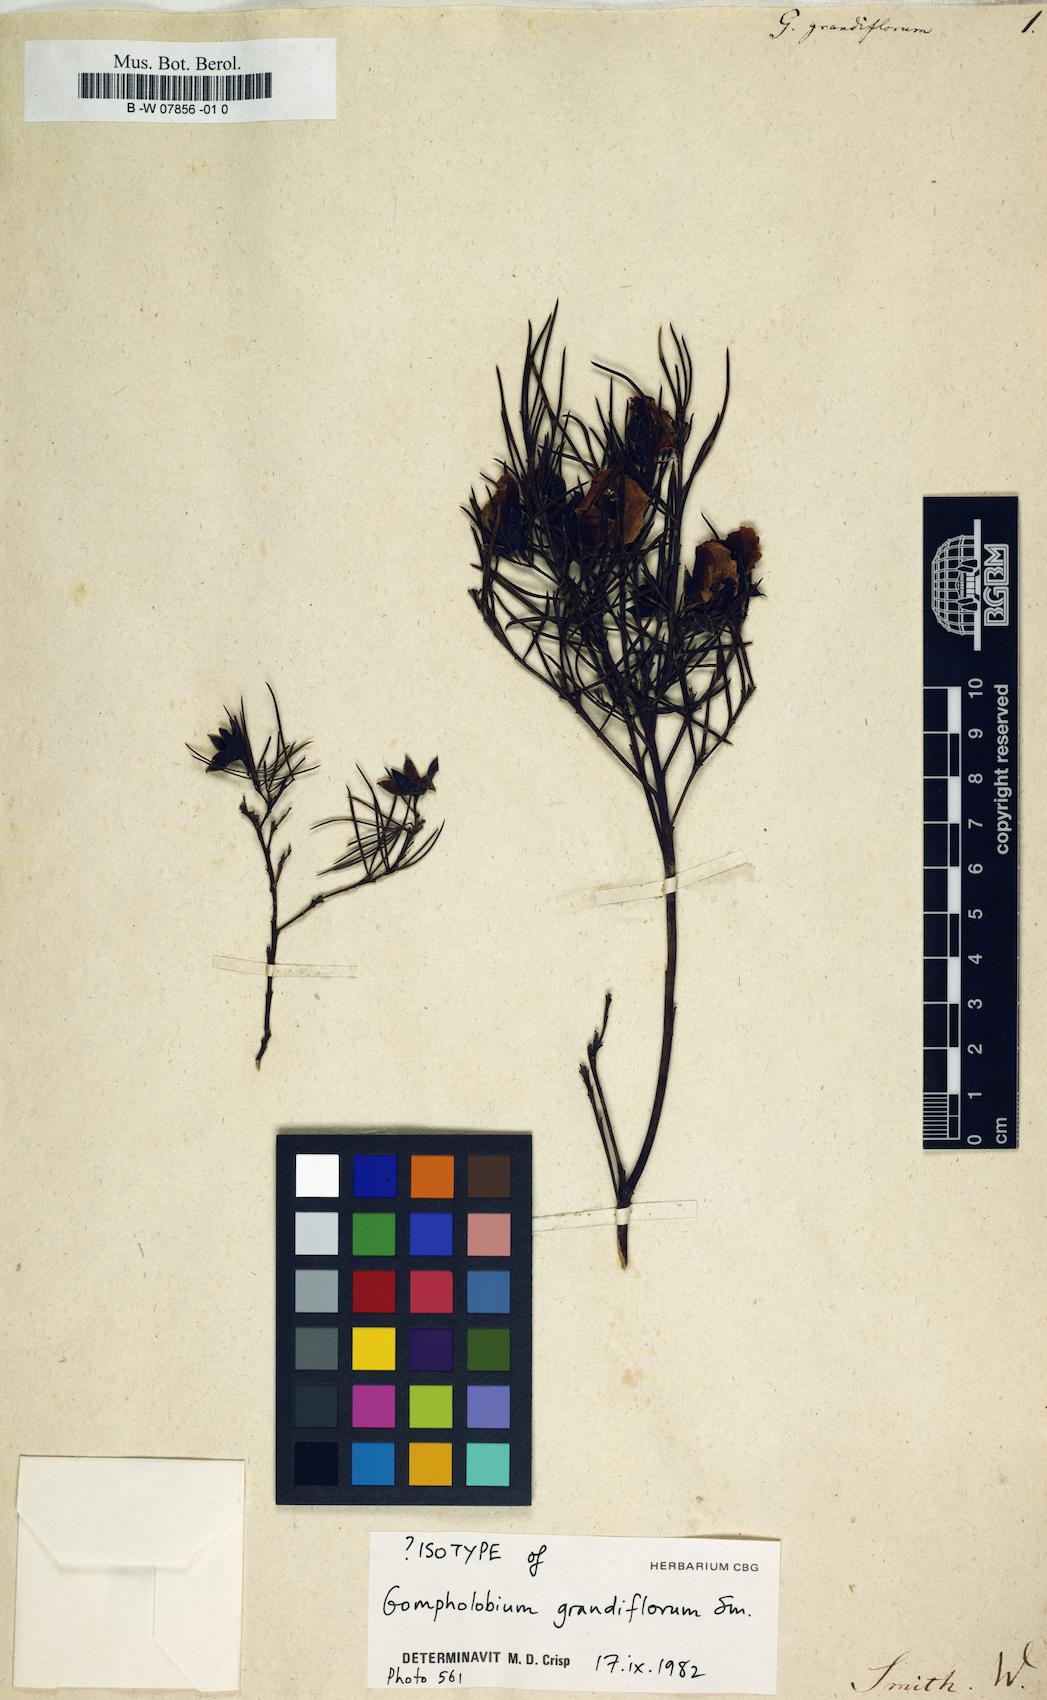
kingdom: Plantae
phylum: Tracheophyta
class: Magnoliopsida
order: Fabales
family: Fabaceae
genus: Gompholobium
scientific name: Gompholobium grandiflorum
